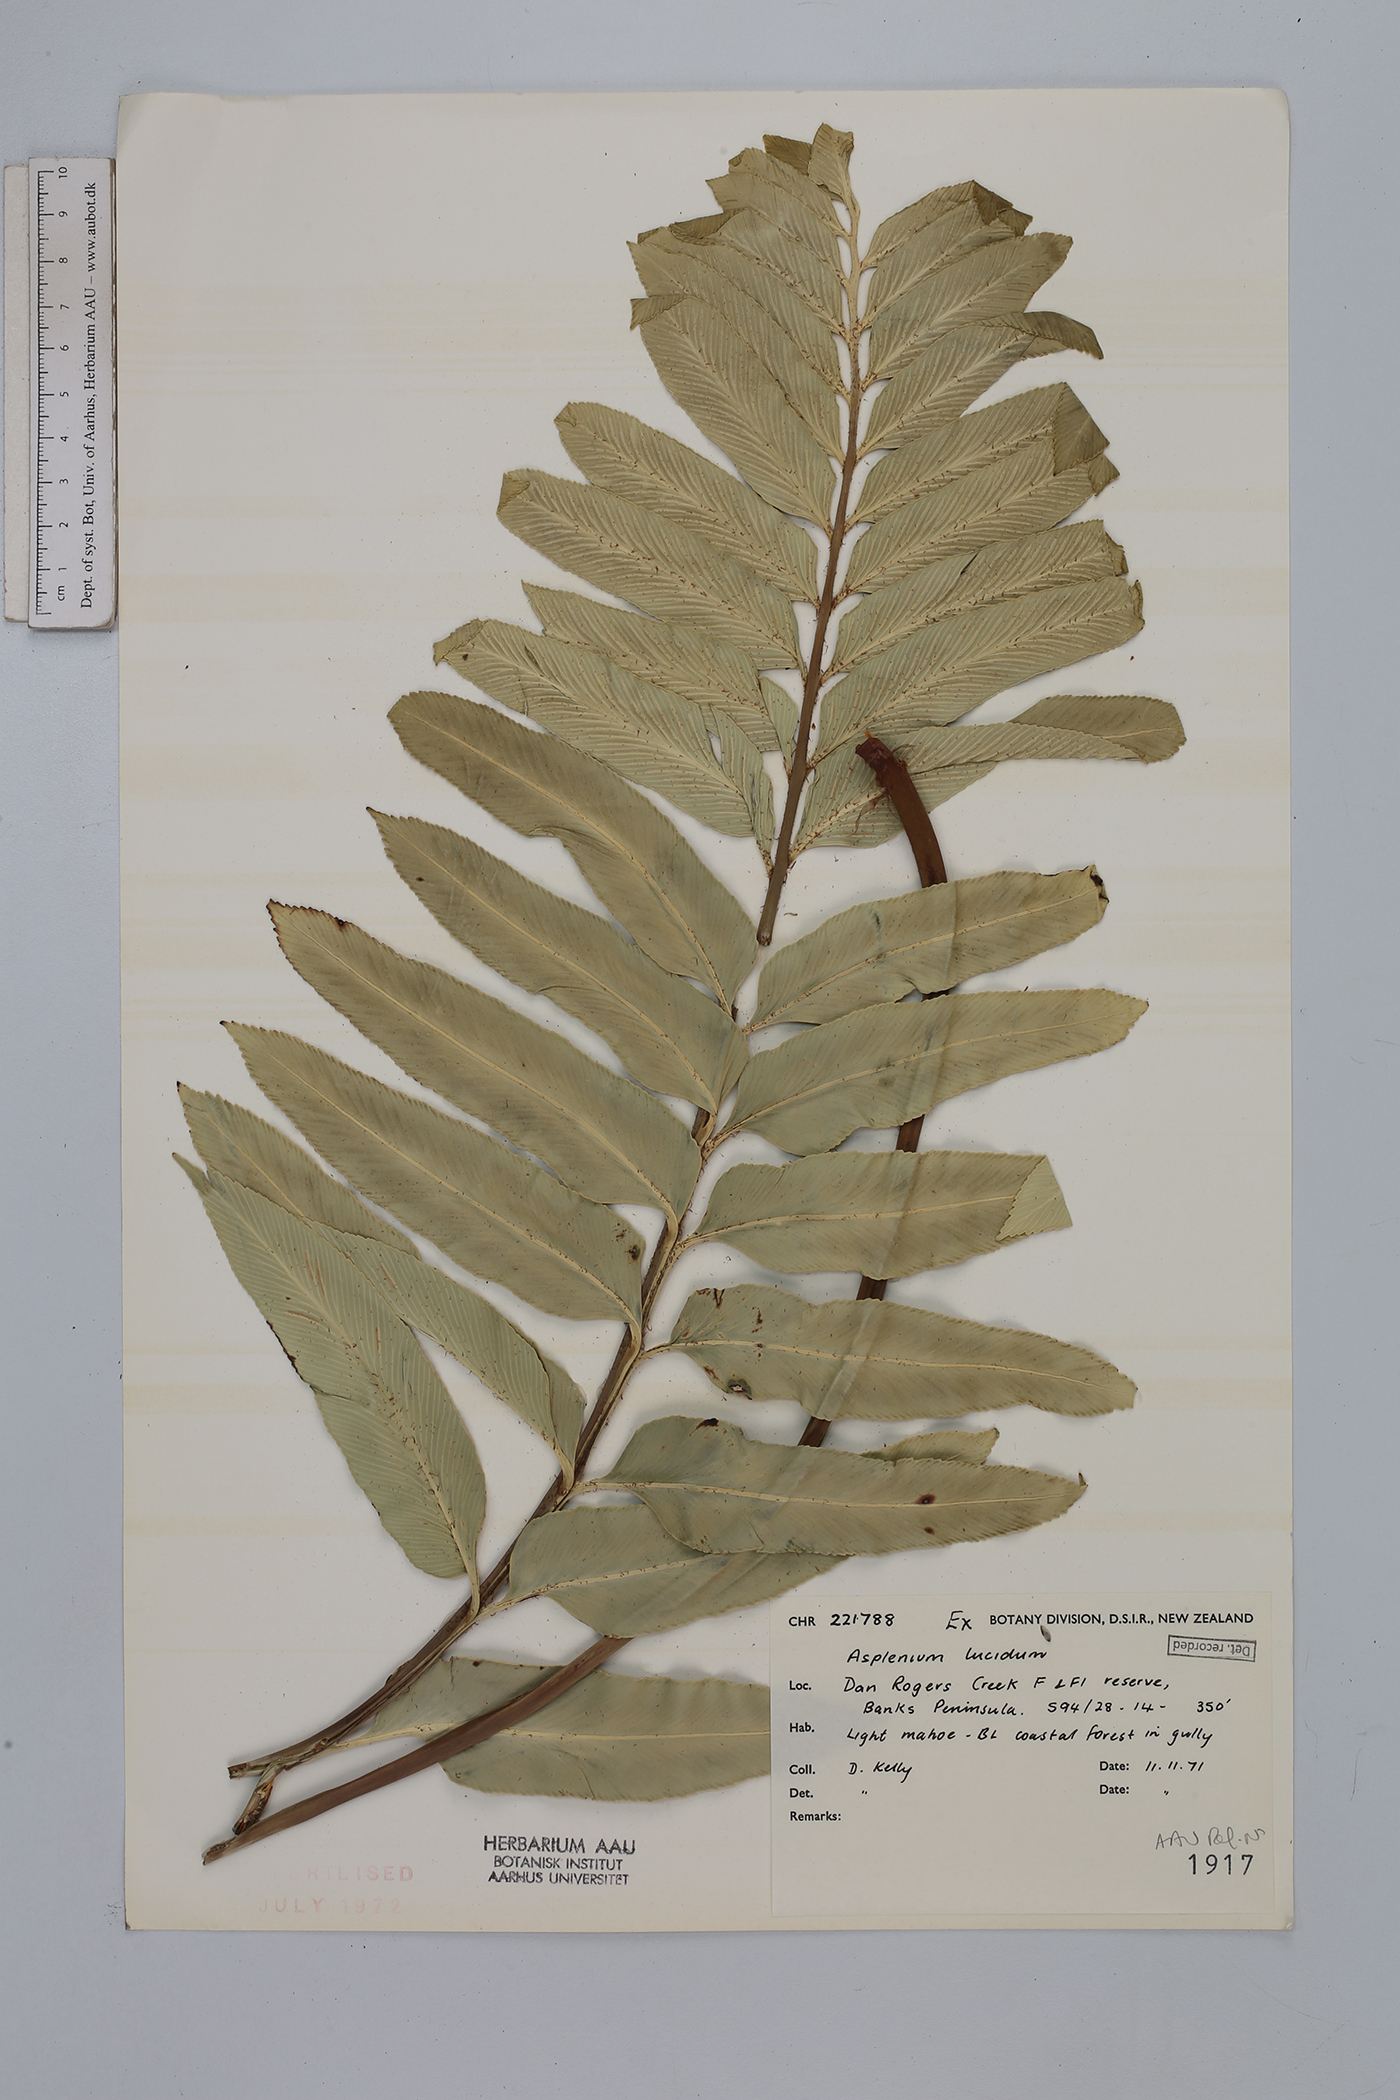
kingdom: Plantae
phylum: Tracheophyta
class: Polypodiopsida
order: Polypodiales
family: Aspleniaceae
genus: Asplenium
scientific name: Asplenium lucanum
